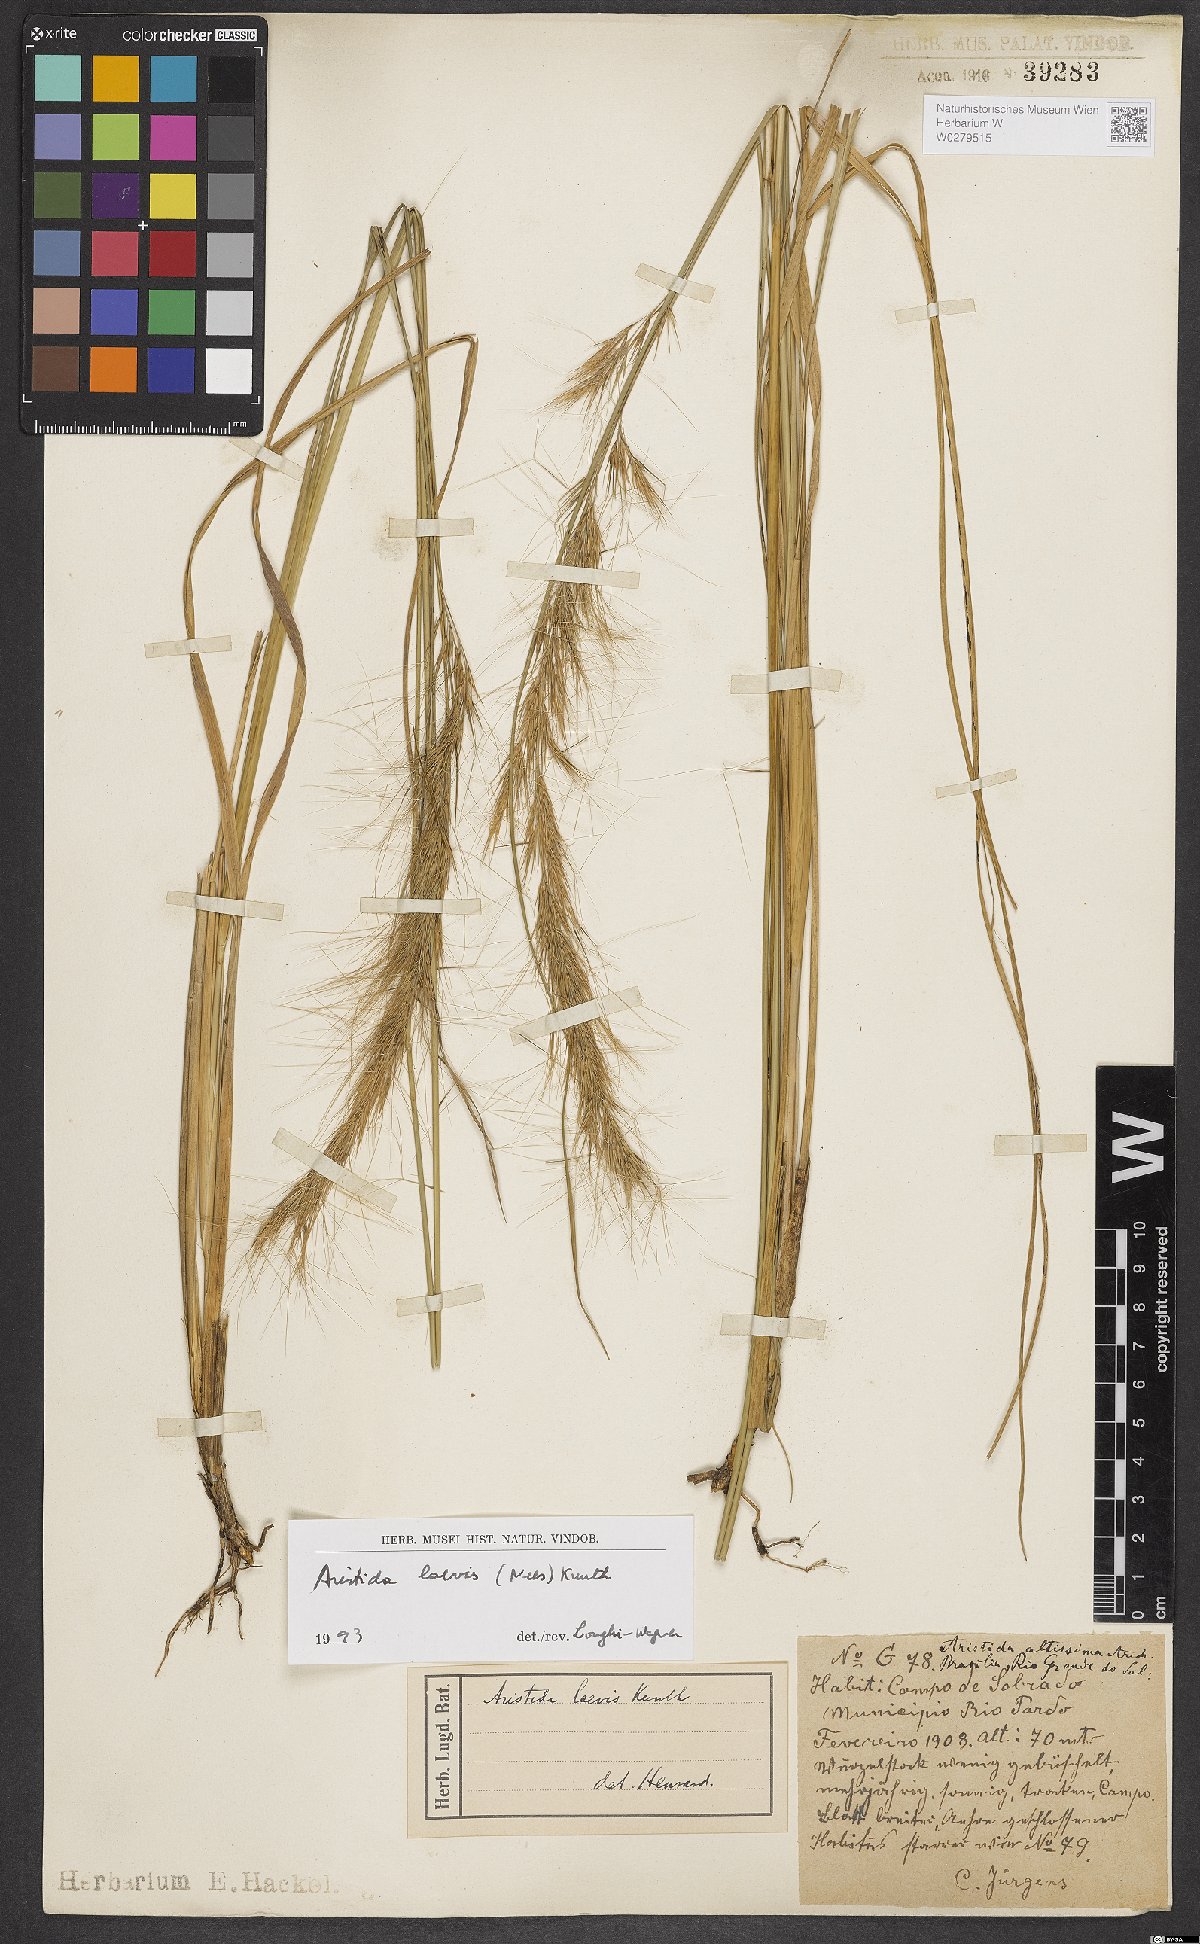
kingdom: Plantae
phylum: Tracheophyta
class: Liliopsida
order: Poales
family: Poaceae
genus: Aristida
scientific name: Aristida pallens
